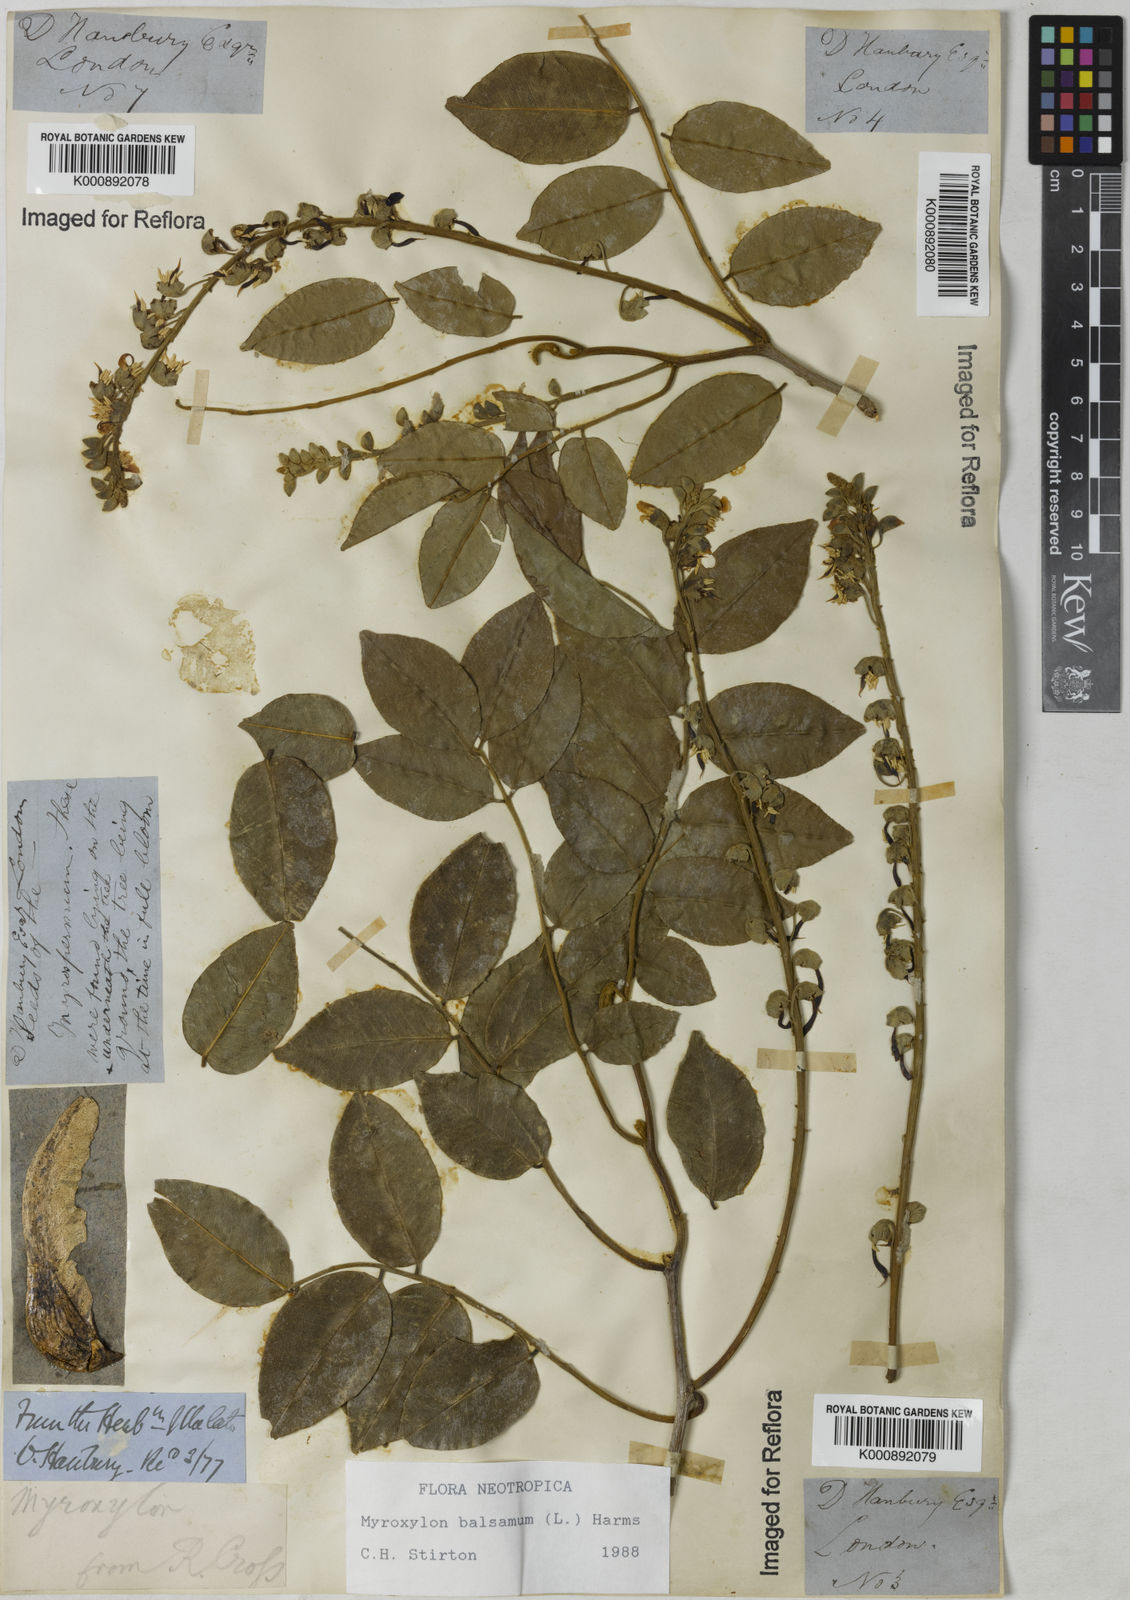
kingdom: Plantae
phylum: Tracheophyta
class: Magnoliopsida
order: Fabales
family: Fabaceae
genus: Myroxylon
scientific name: Myroxylon balsamum
